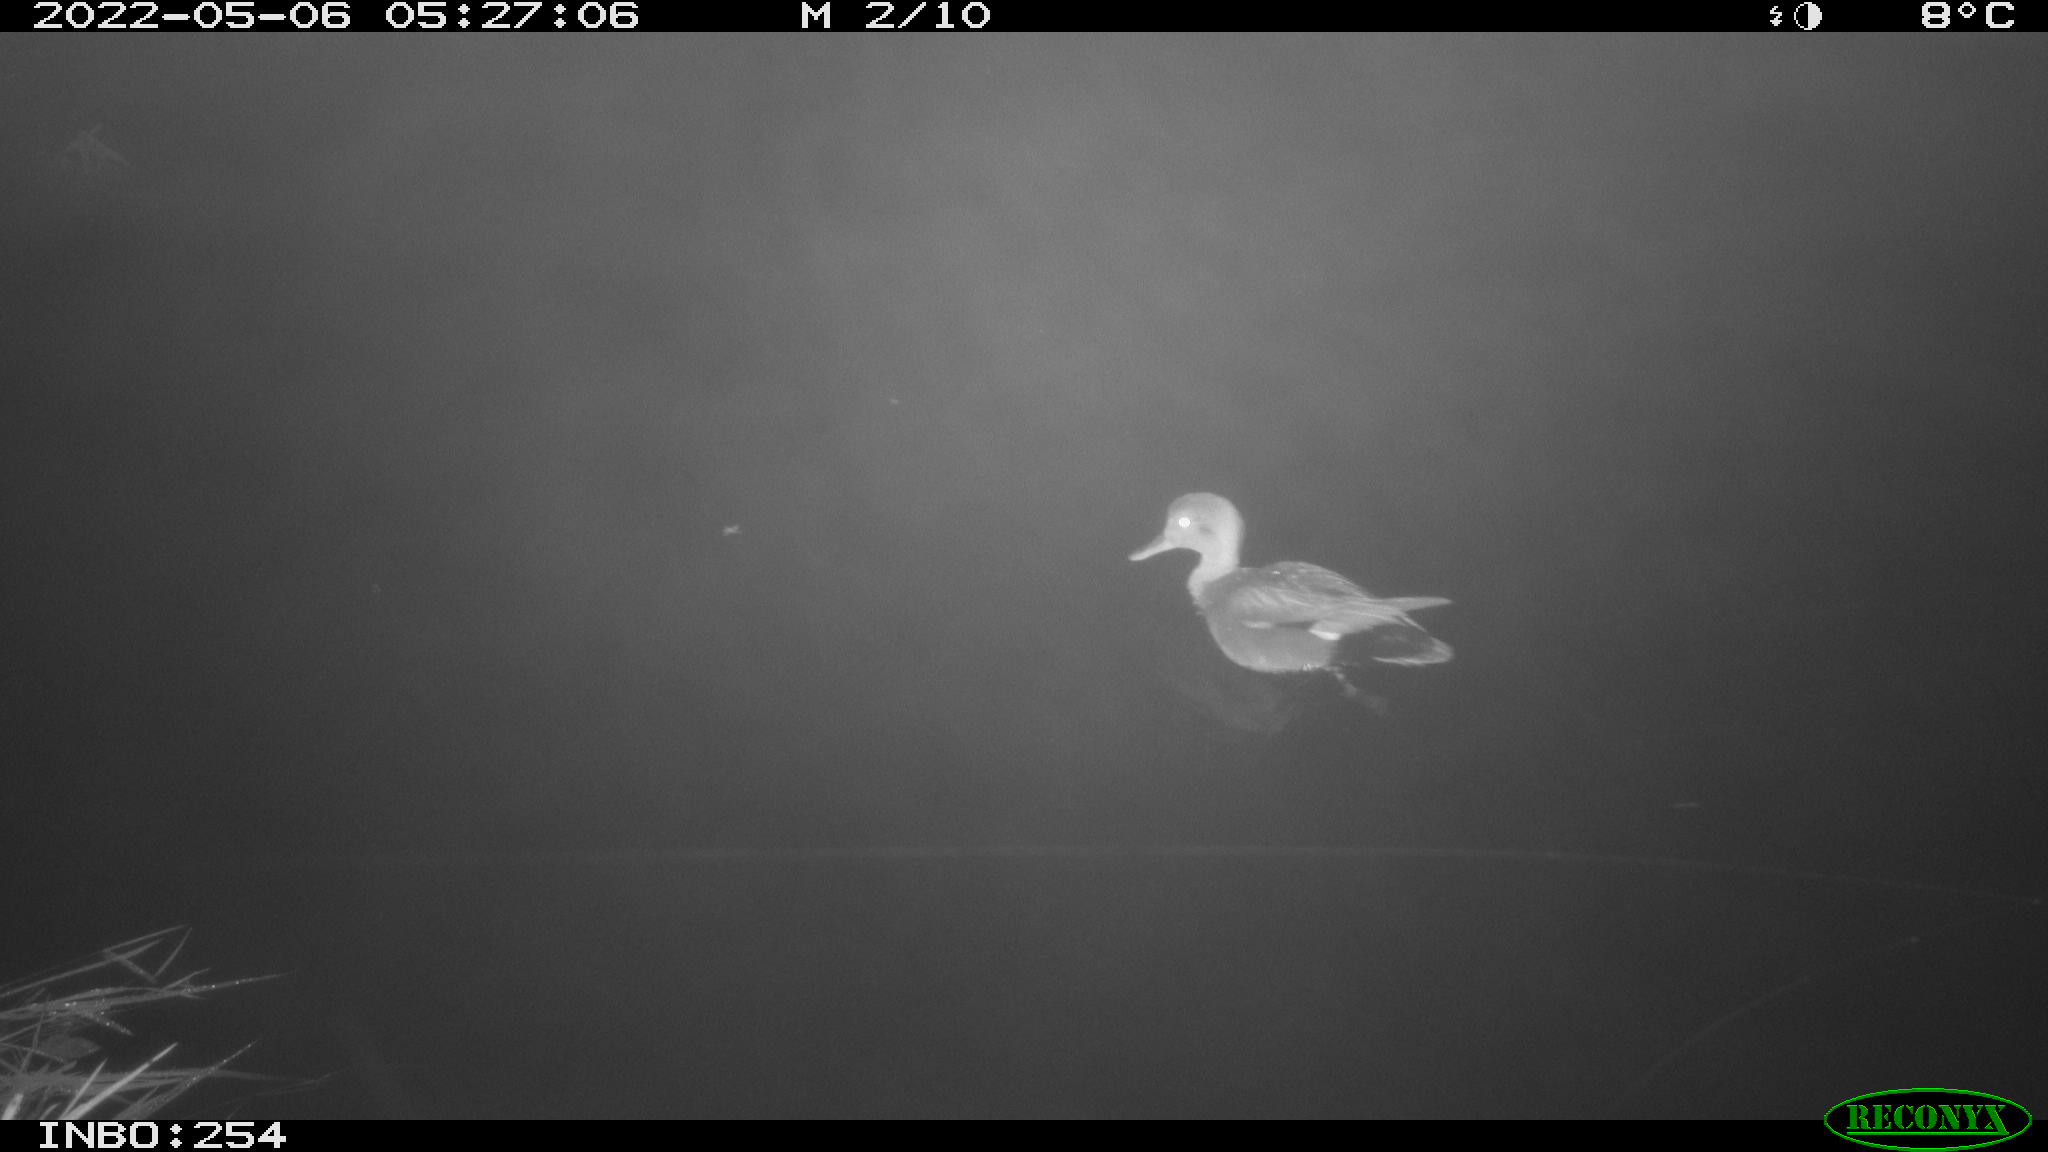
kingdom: Animalia
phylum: Chordata
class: Aves
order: Anseriformes
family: Anatidae
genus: Mareca
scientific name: Mareca strepera
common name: Gadwall
